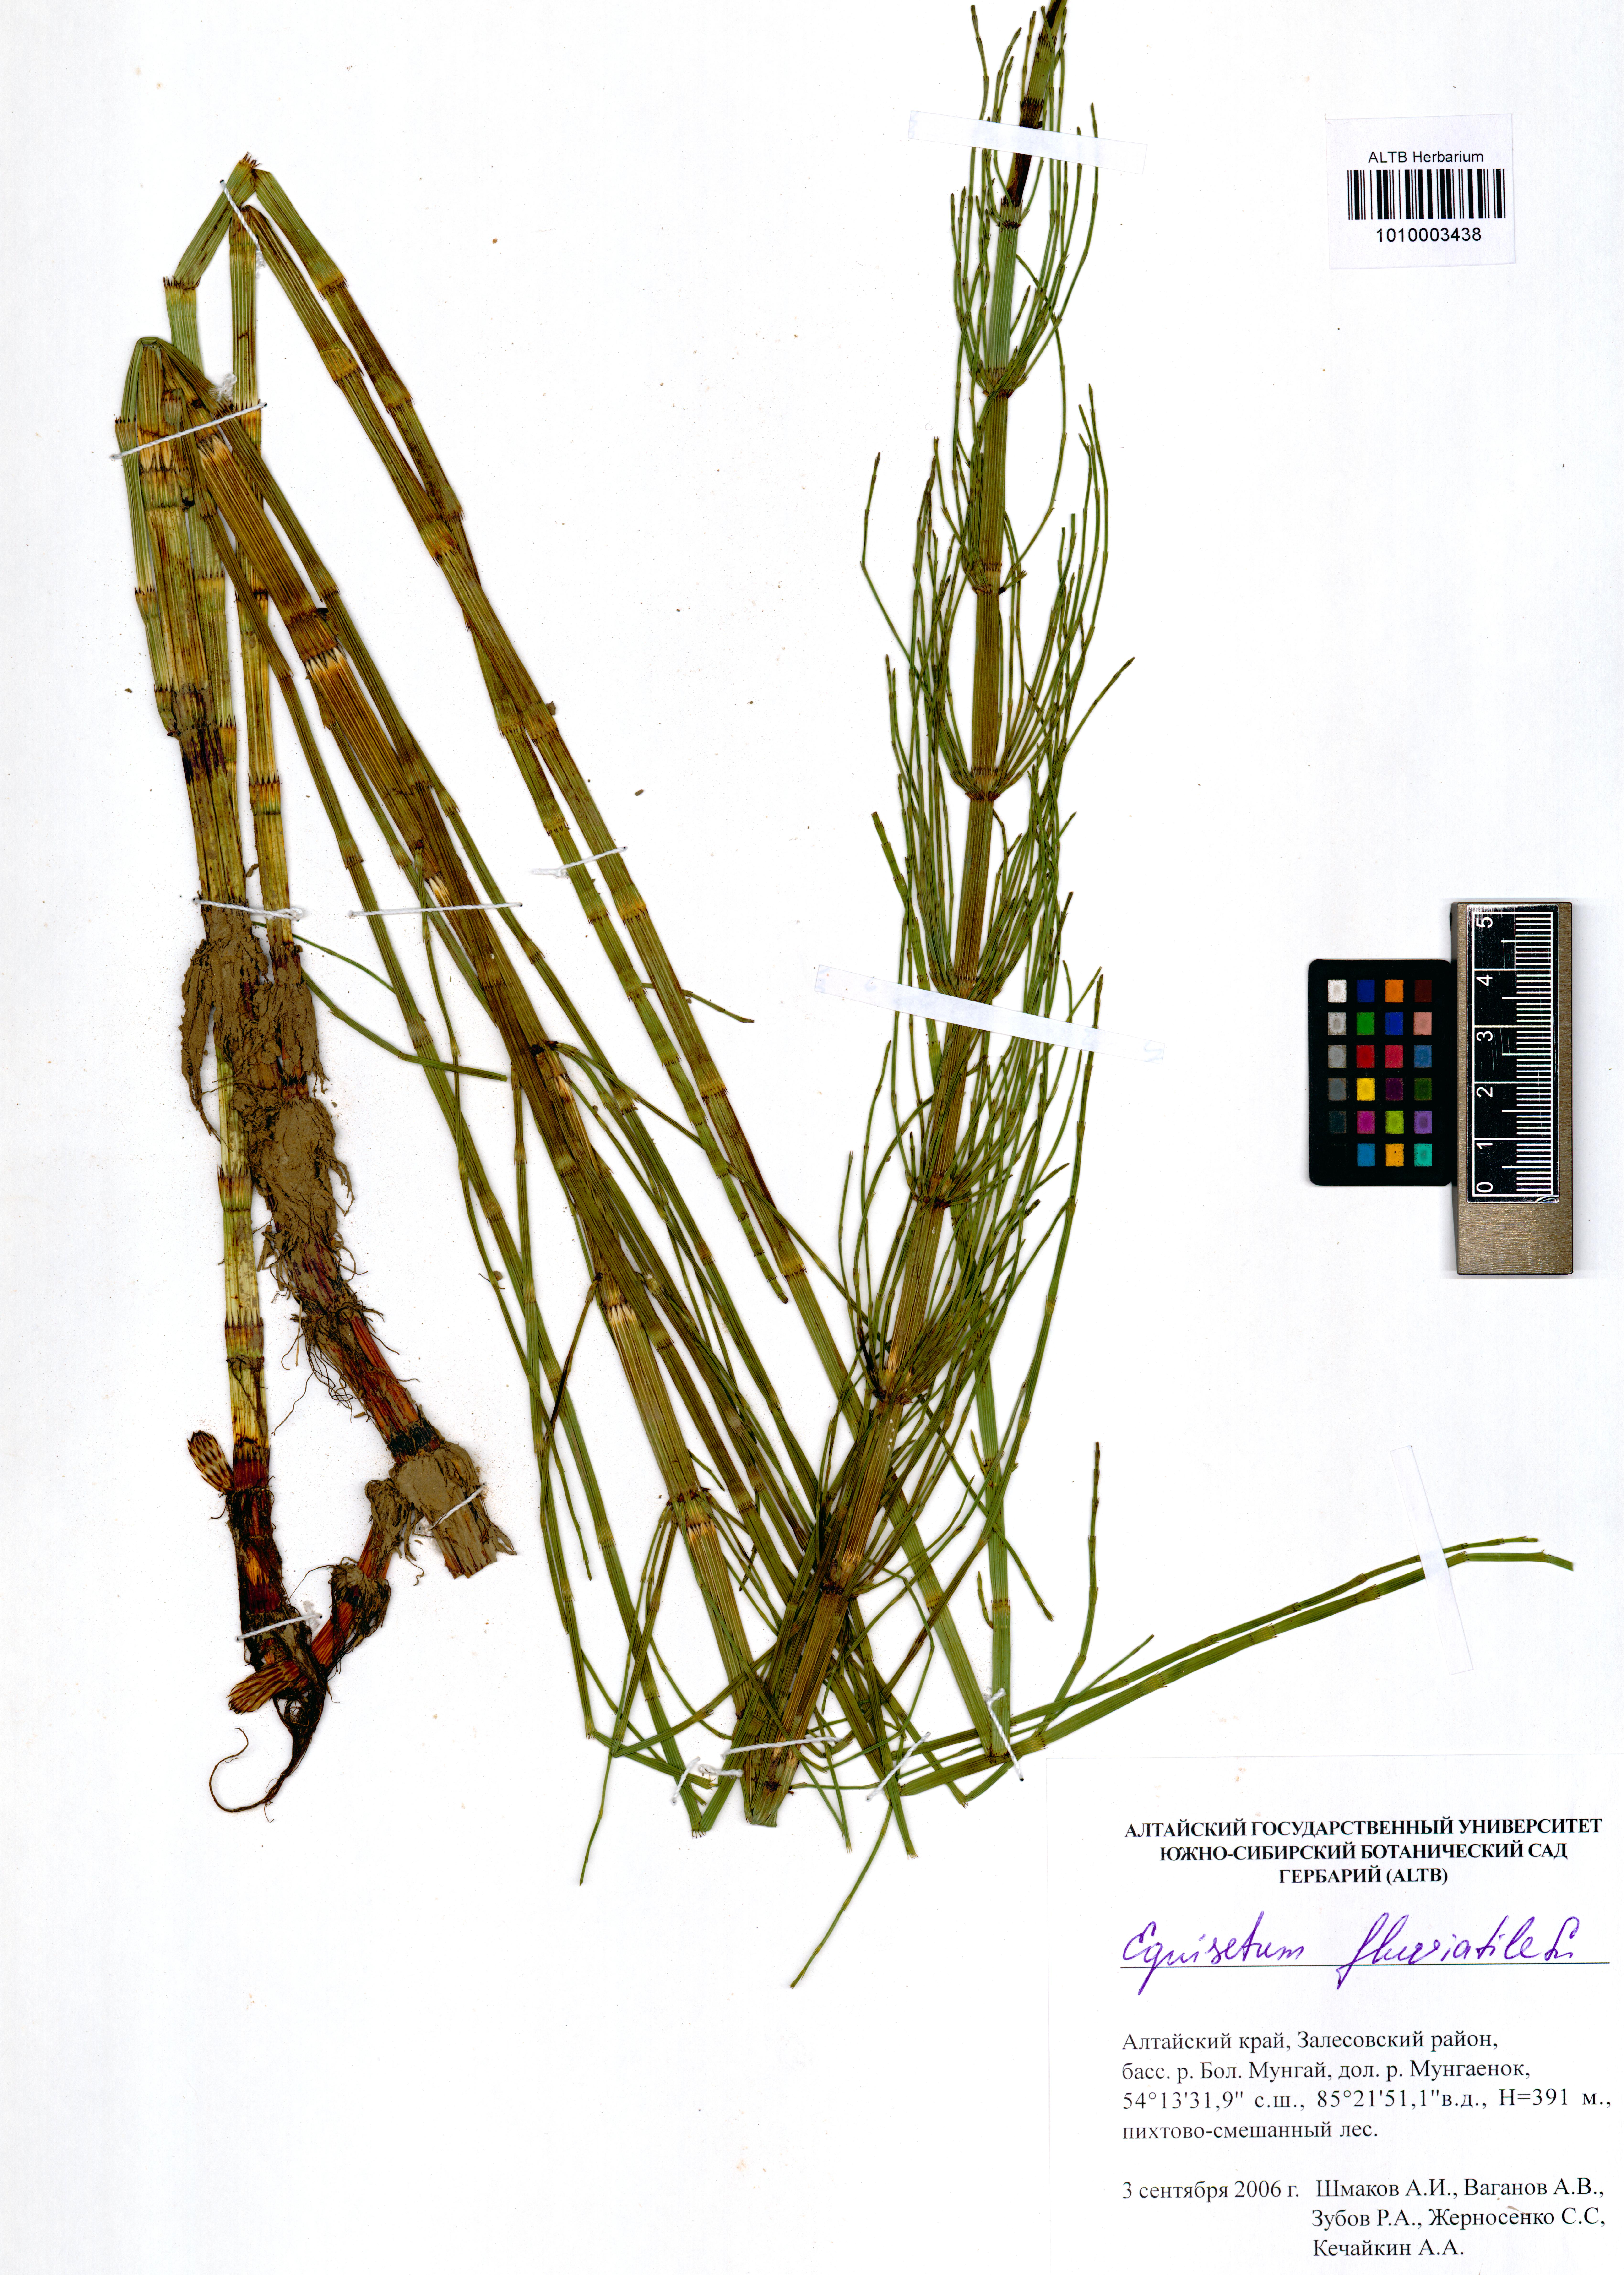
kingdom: Plantae
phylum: Tracheophyta
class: Polypodiopsida
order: Equisetales
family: Equisetaceae
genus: Equisetum
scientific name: Equisetum fluviatile
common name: Water horsetail
